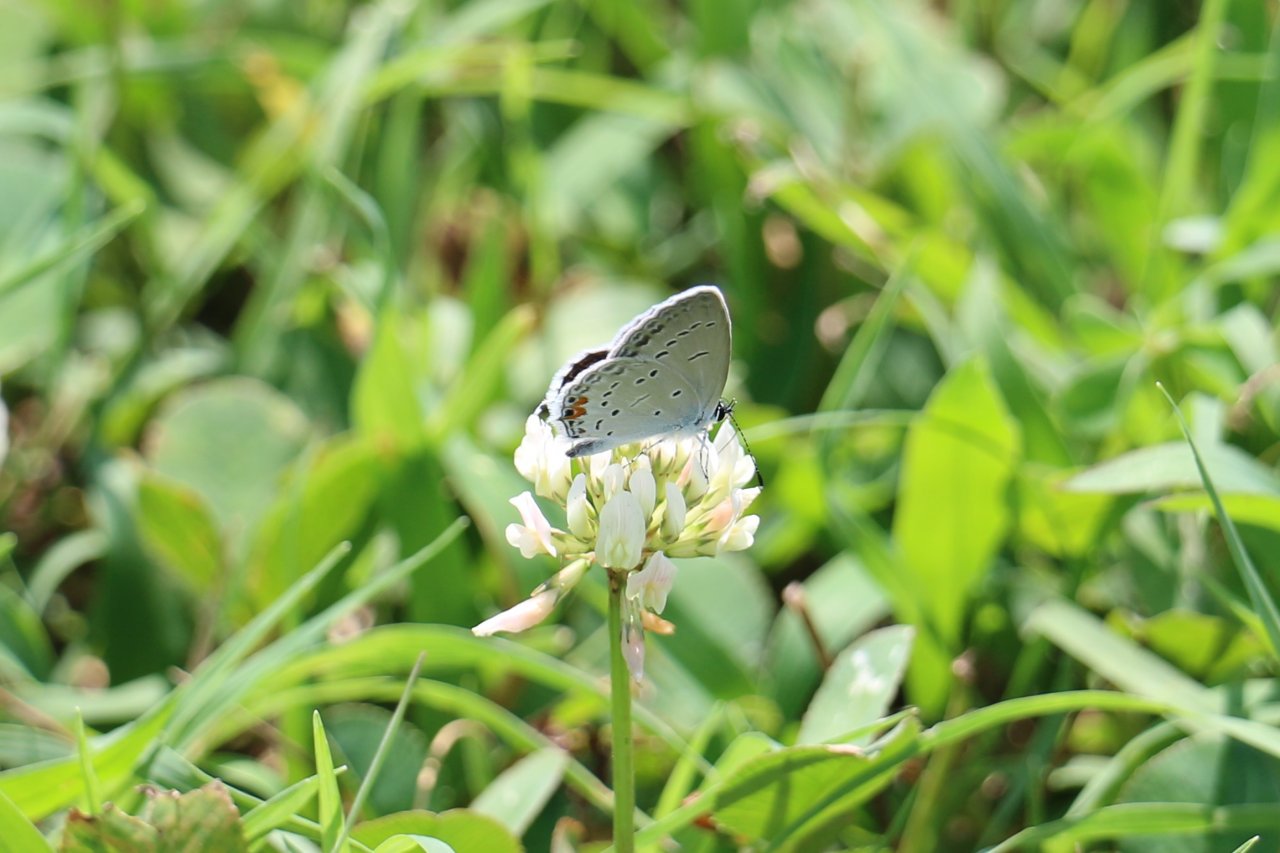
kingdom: Animalia
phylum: Arthropoda
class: Insecta
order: Lepidoptera
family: Lycaenidae
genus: Elkalyce
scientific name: Elkalyce comyntas
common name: Eastern Tailed-Blue
